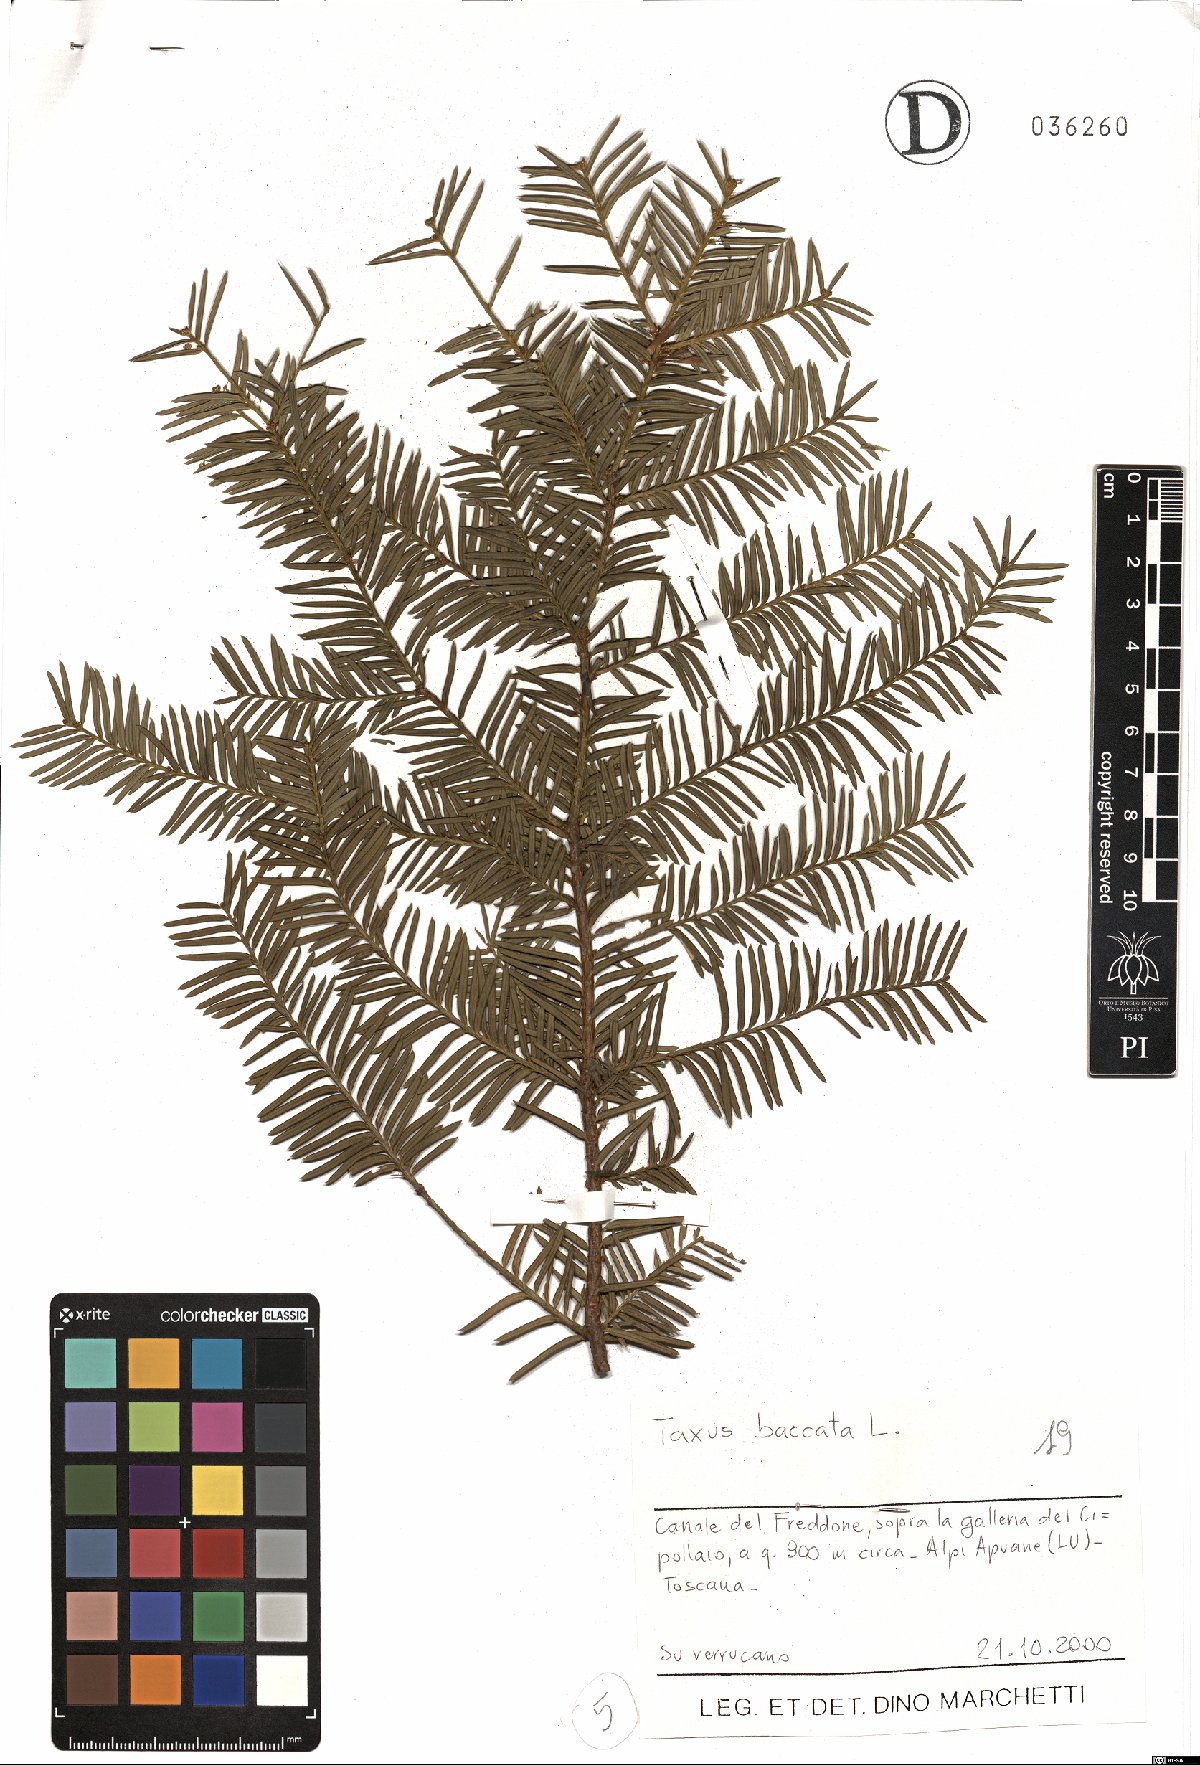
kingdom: Plantae
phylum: Tracheophyta
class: Pinopsida
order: Pinales
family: Taxaceae
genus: Taxus
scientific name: Taxus baccata
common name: Yew
